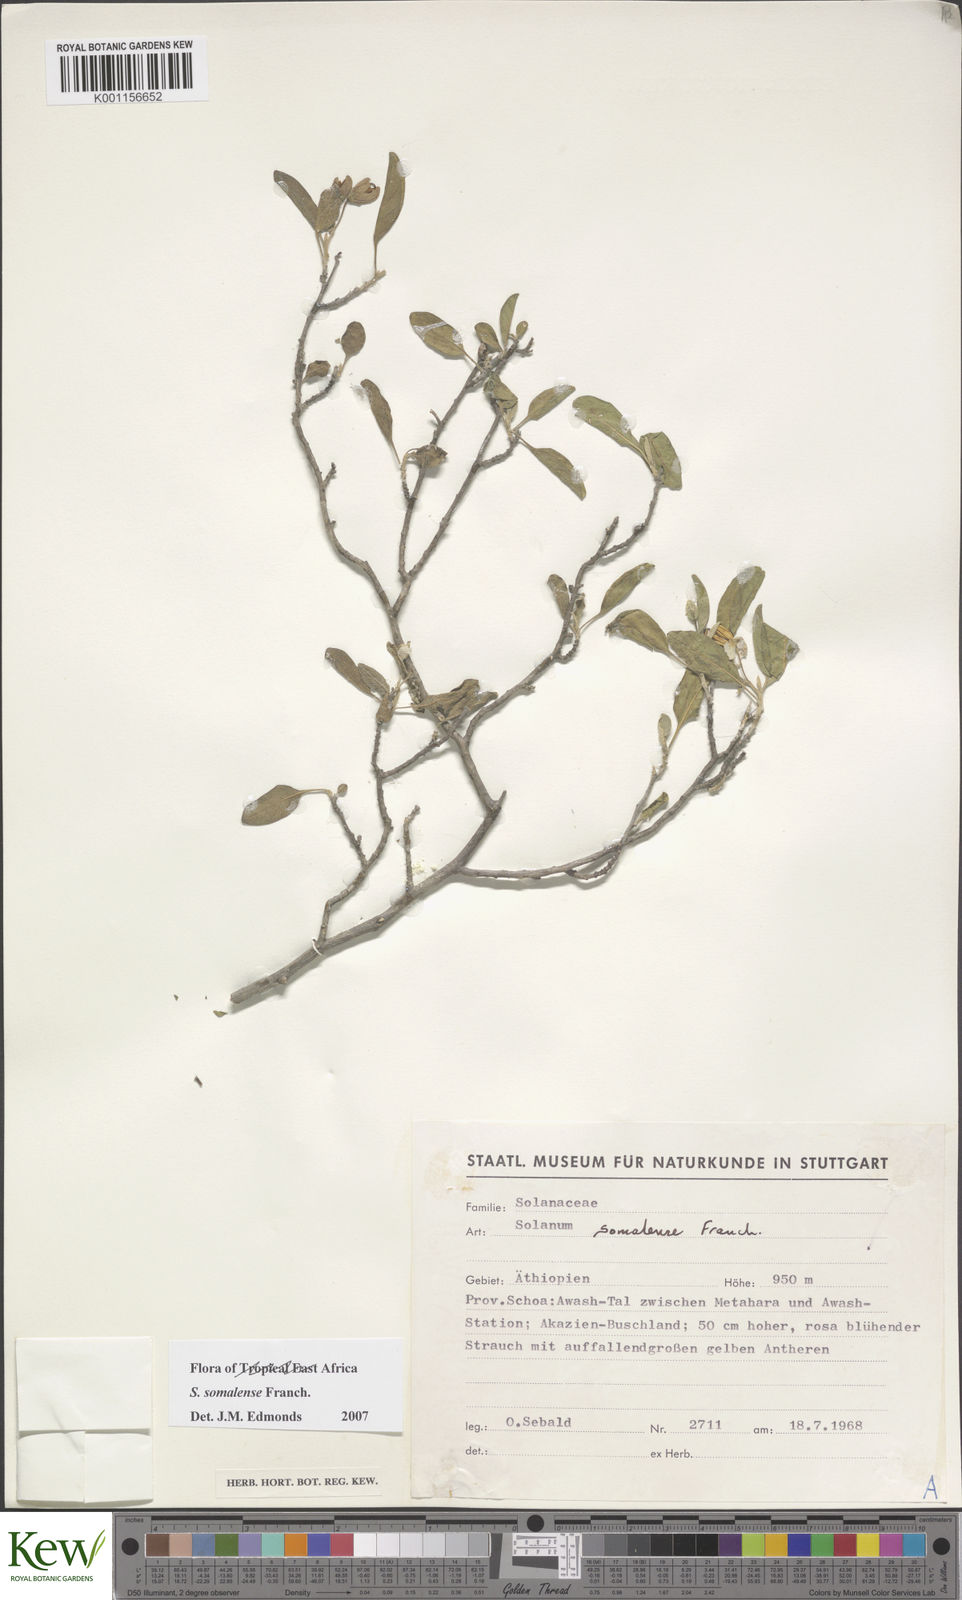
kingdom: Plantae
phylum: Tracheophyta
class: Magnoliopsida
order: Solanales
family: Solanaceae
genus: Solanum
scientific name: Solanum somalense
